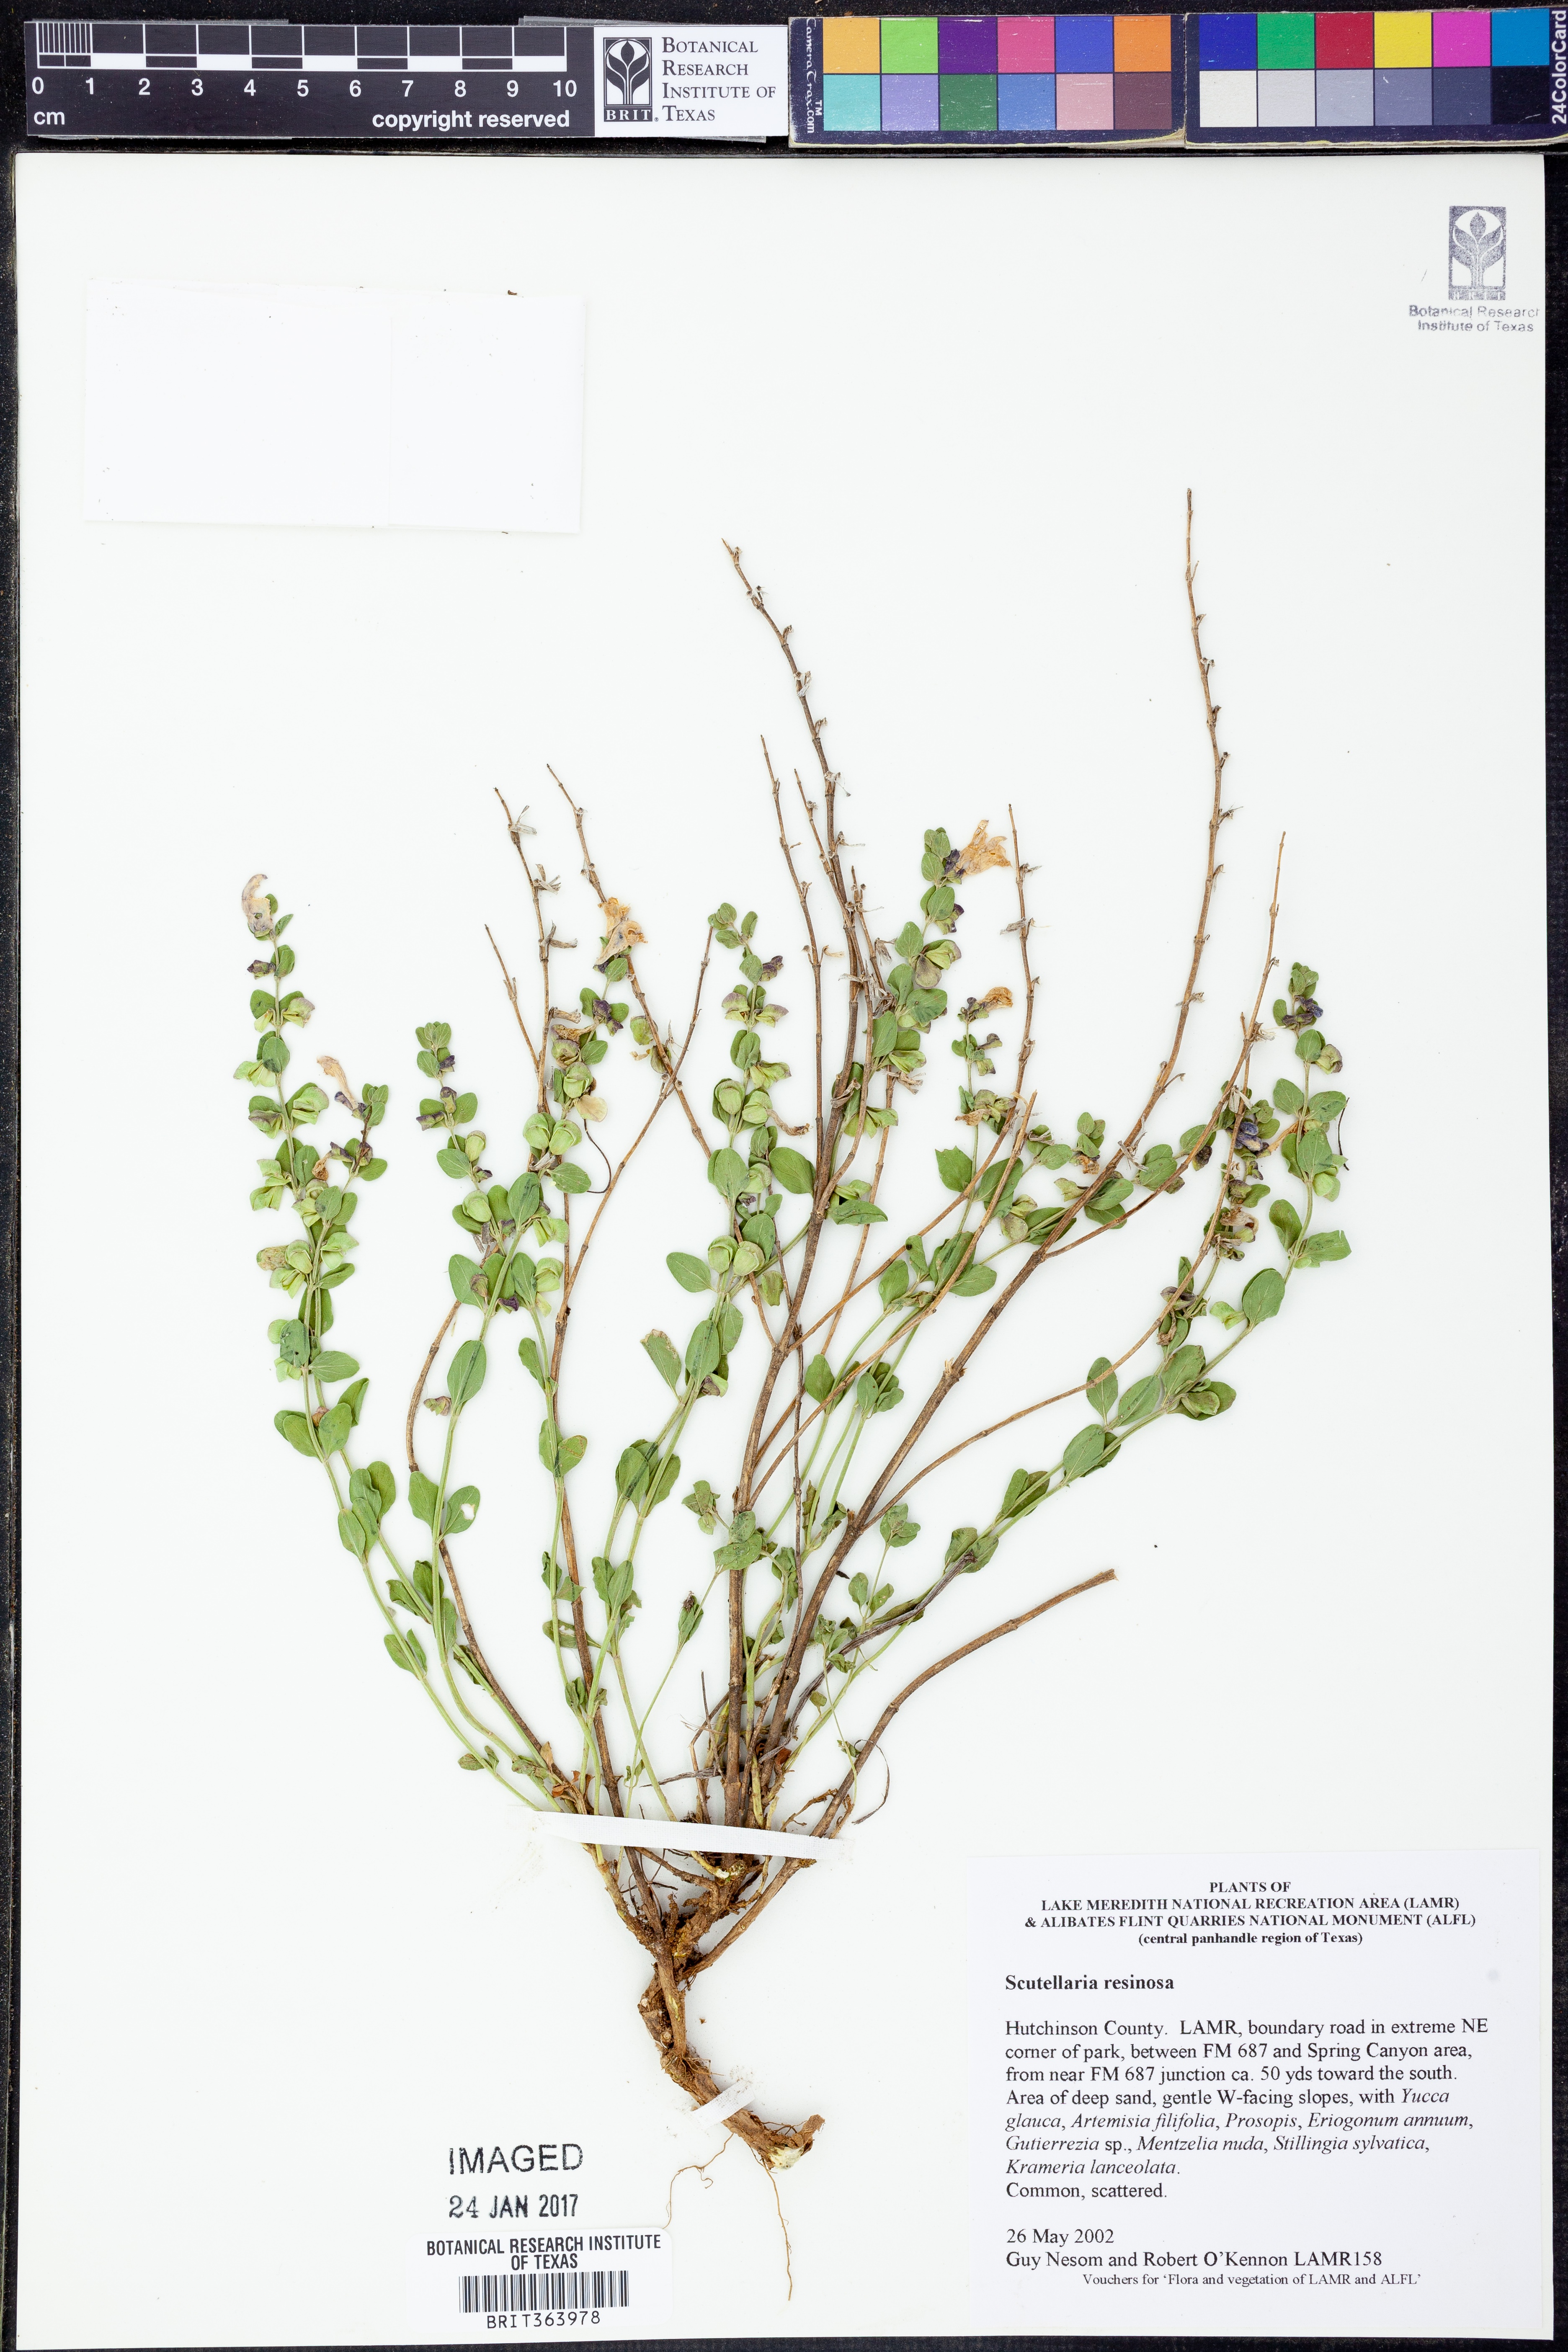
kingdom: Plantae
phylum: Tracheophyta
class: Magnoliopsida
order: Lamiales
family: Lamiaceae
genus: Scutellaria
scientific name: Scutellaria resinosa
